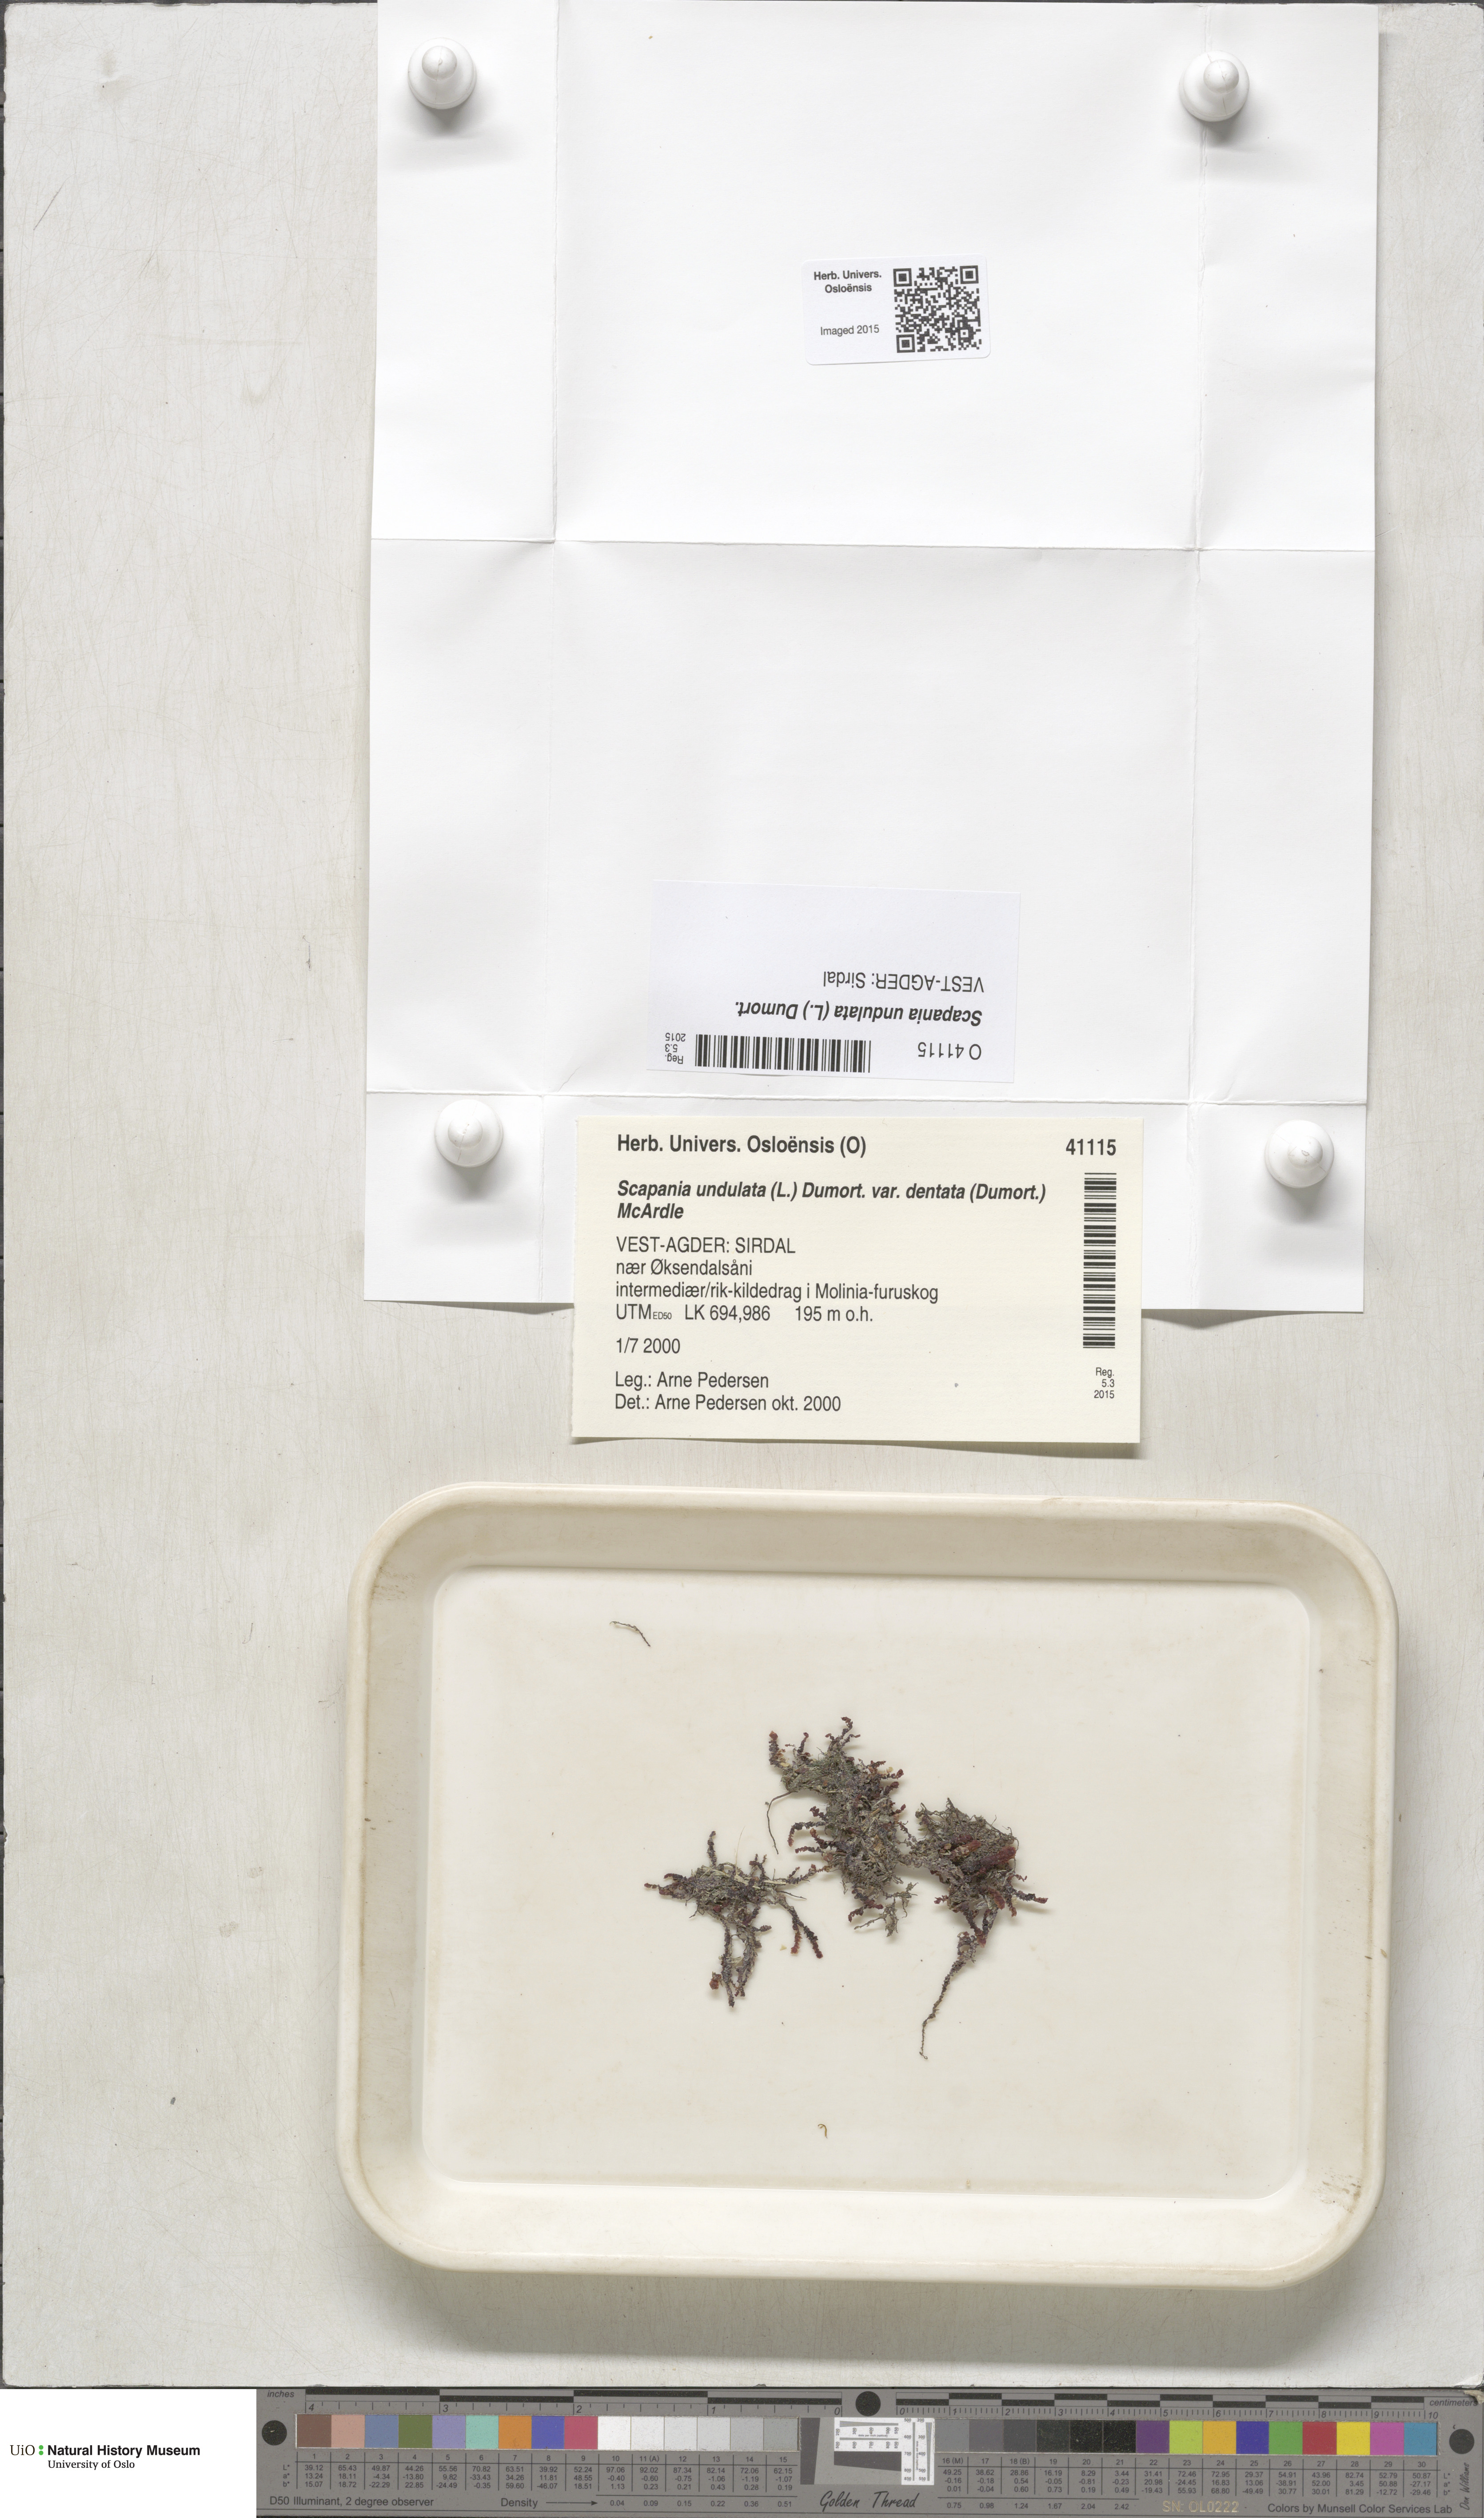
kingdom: Plantae
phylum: Marchantiophyta
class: Jungermanniopsida
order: Jungermanniales
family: Scapaniaceae
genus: Scapania
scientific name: Scapania undulata
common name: Water earwort
